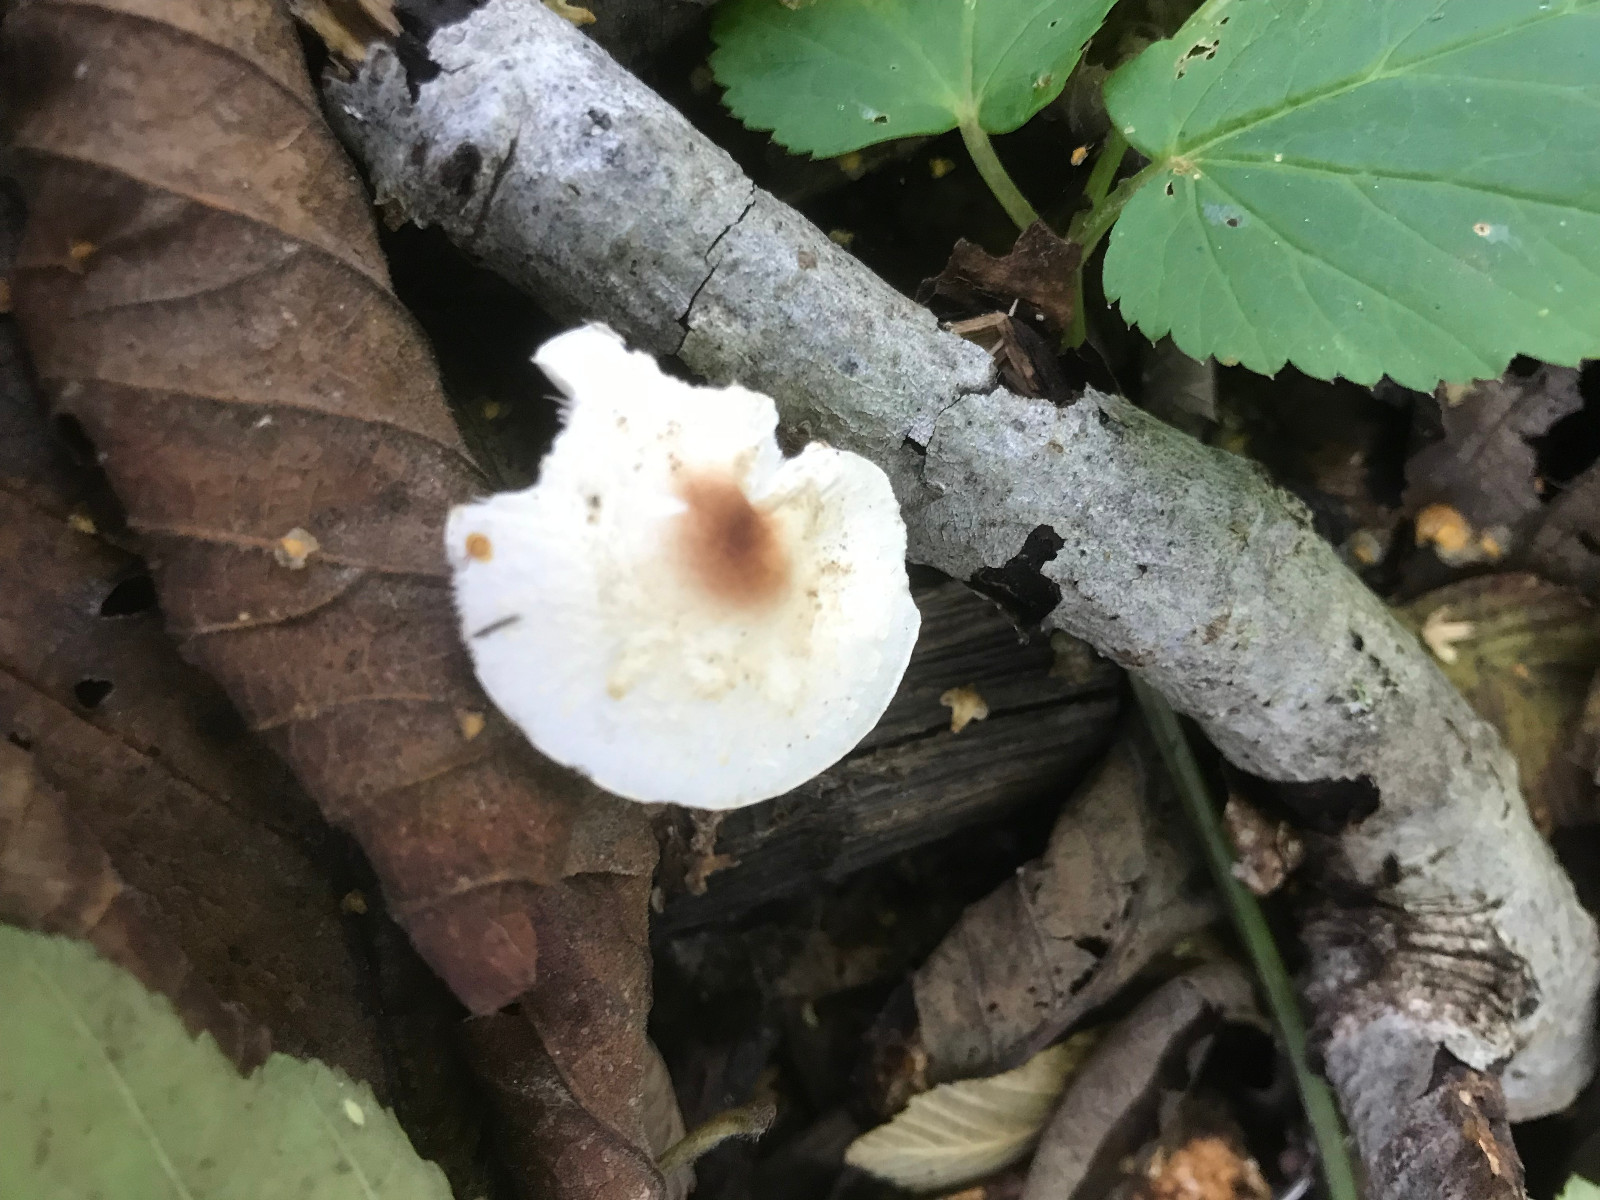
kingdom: Fungi
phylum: Basidiomycota
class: Agaricomycetes
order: Agaricales
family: Agaricaceae
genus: Lepiota
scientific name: Lepiota cristata
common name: stinkende parasolhat
